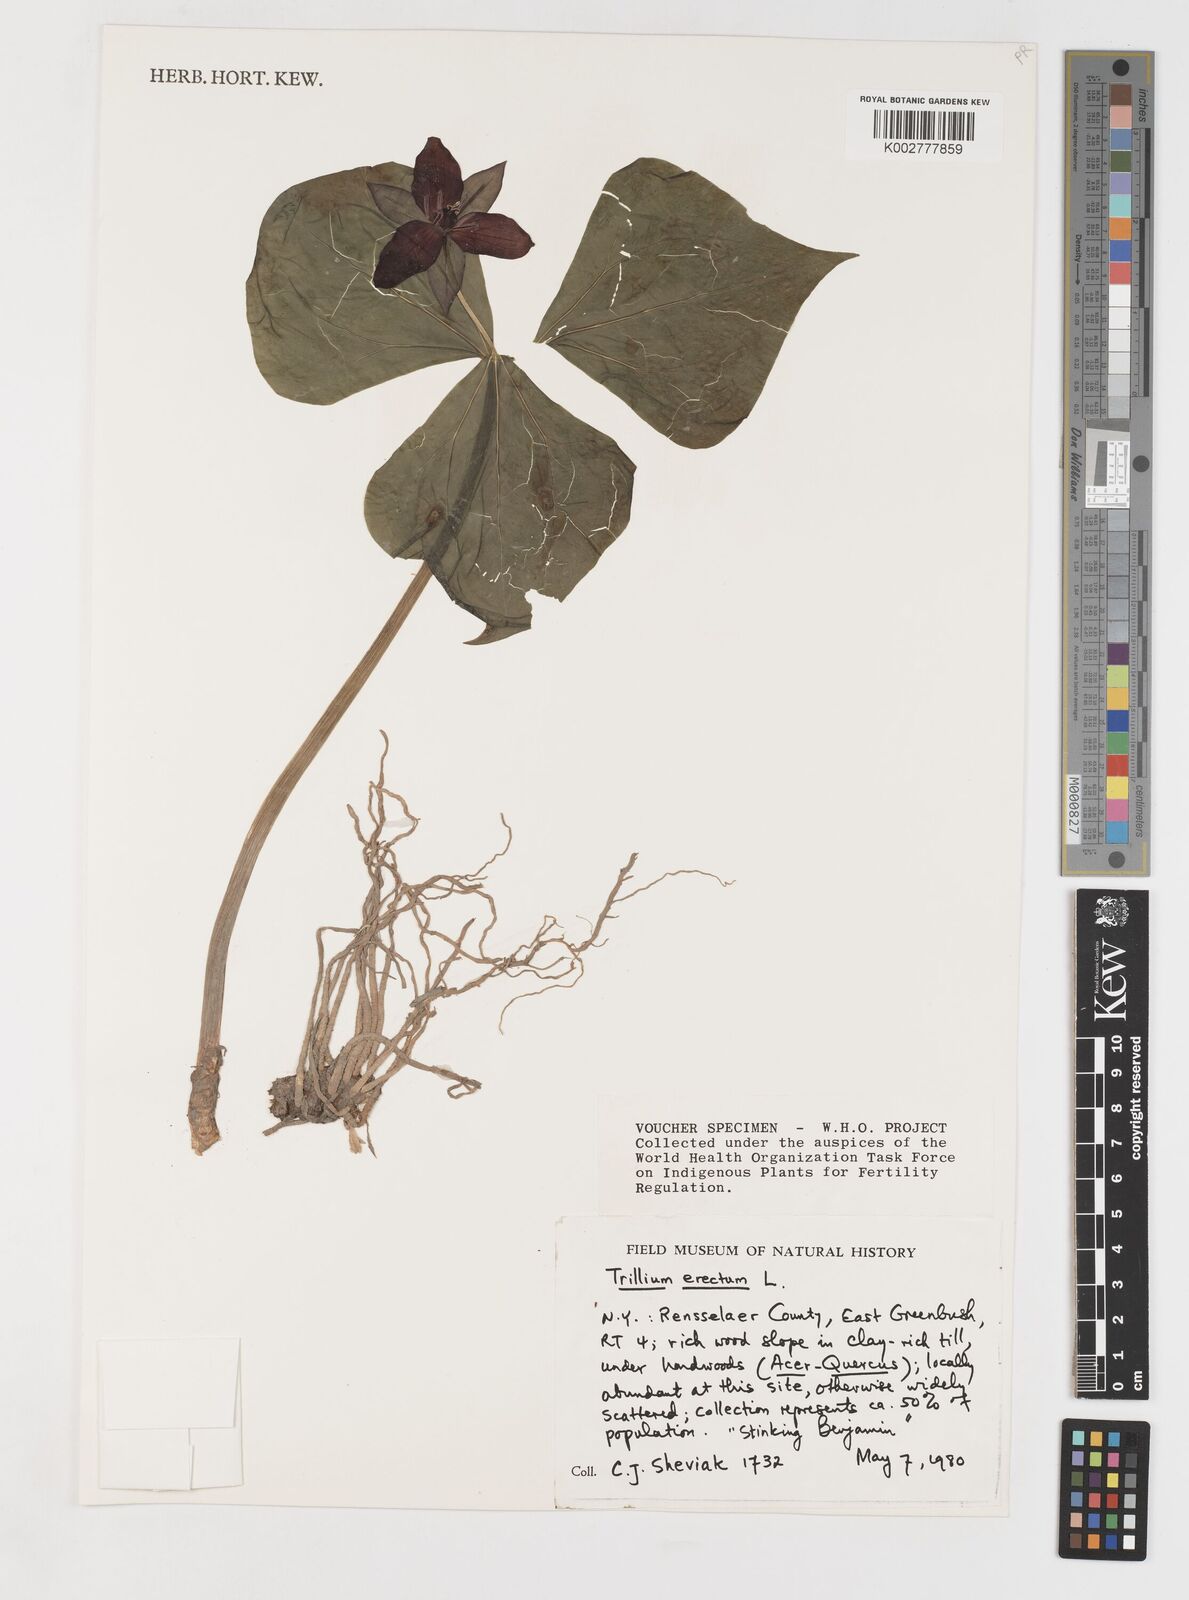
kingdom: Plantae
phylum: Tracheophyta
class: Liliopsida
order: Liliales
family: Melanthiaceae
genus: Trillium
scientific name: Trillium erectum
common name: Purple trillium
